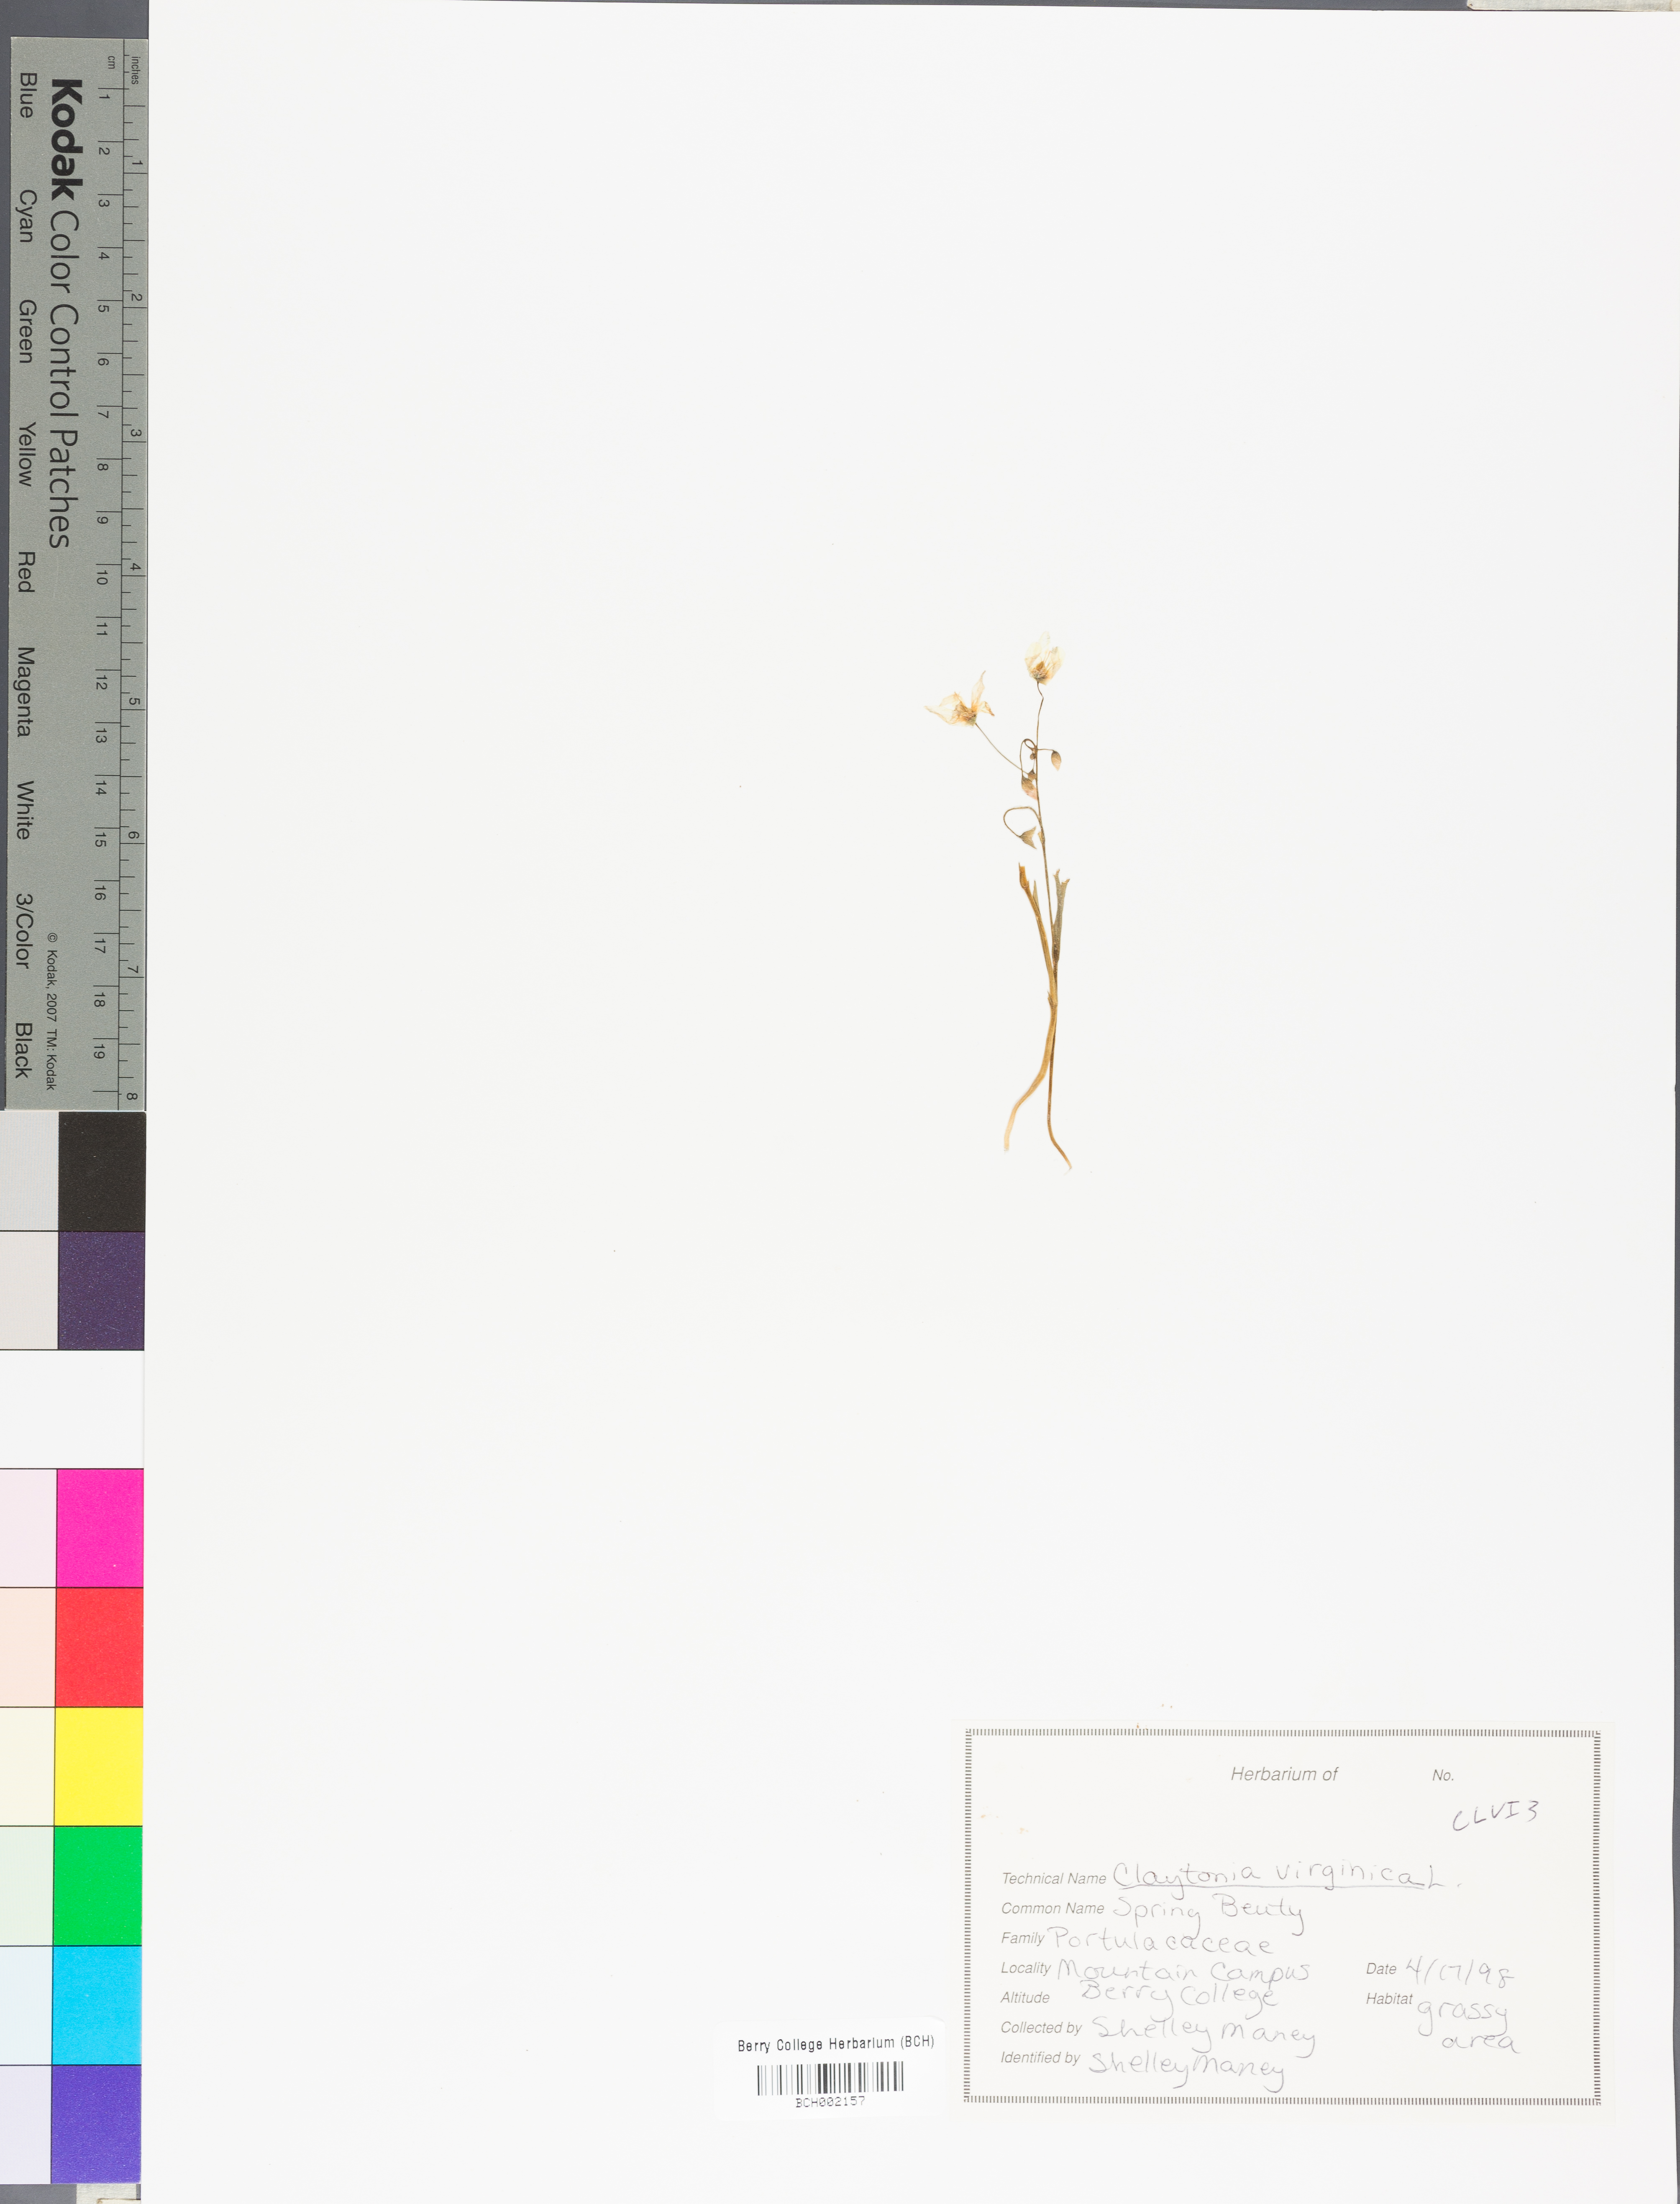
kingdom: Plantae
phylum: Tracheophyta
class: Magnoliopsida
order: Caryophyllales
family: Montiaceae
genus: Claytonia
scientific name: Claytonia virginica
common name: Virginia springbeauty
